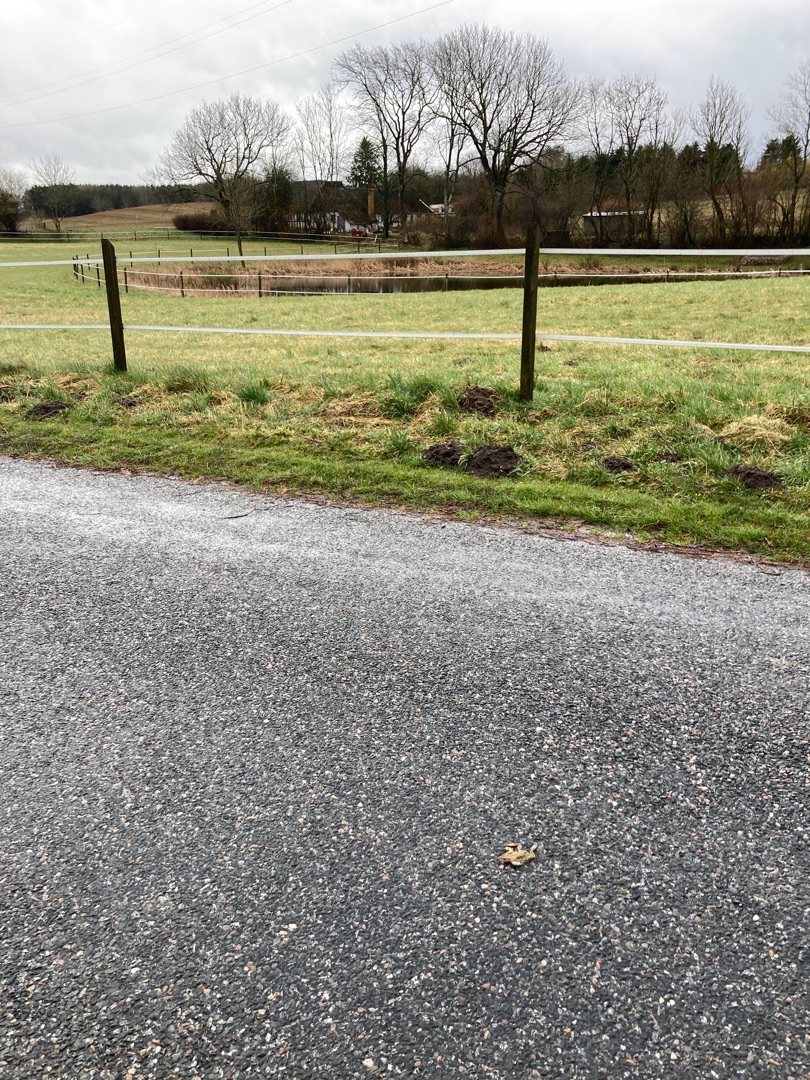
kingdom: Animalia
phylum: Chordata
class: Amphibia
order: Anura
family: Bufonidae
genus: Bufo
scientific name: Bufo bufo
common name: Skrubtudse
